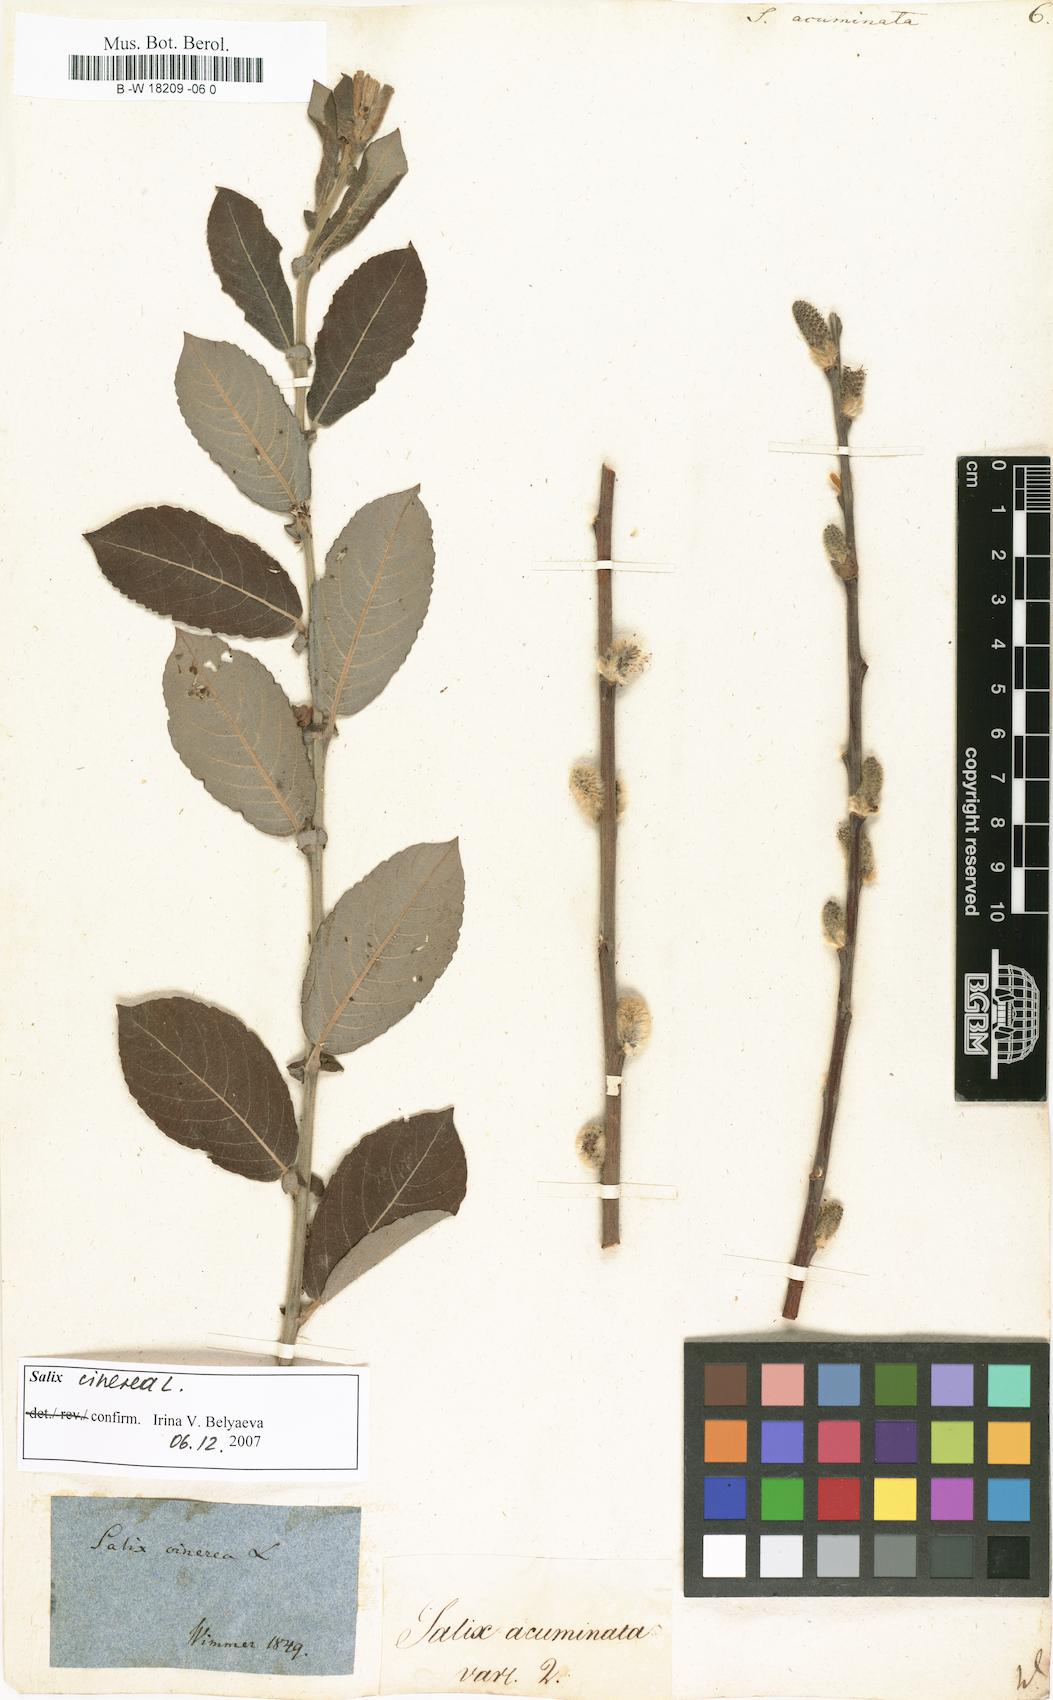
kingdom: Plantae
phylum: Tracheophyta
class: Magnoliopsida
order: Malpighiales
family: Salicaceae
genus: Salix
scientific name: Salix
